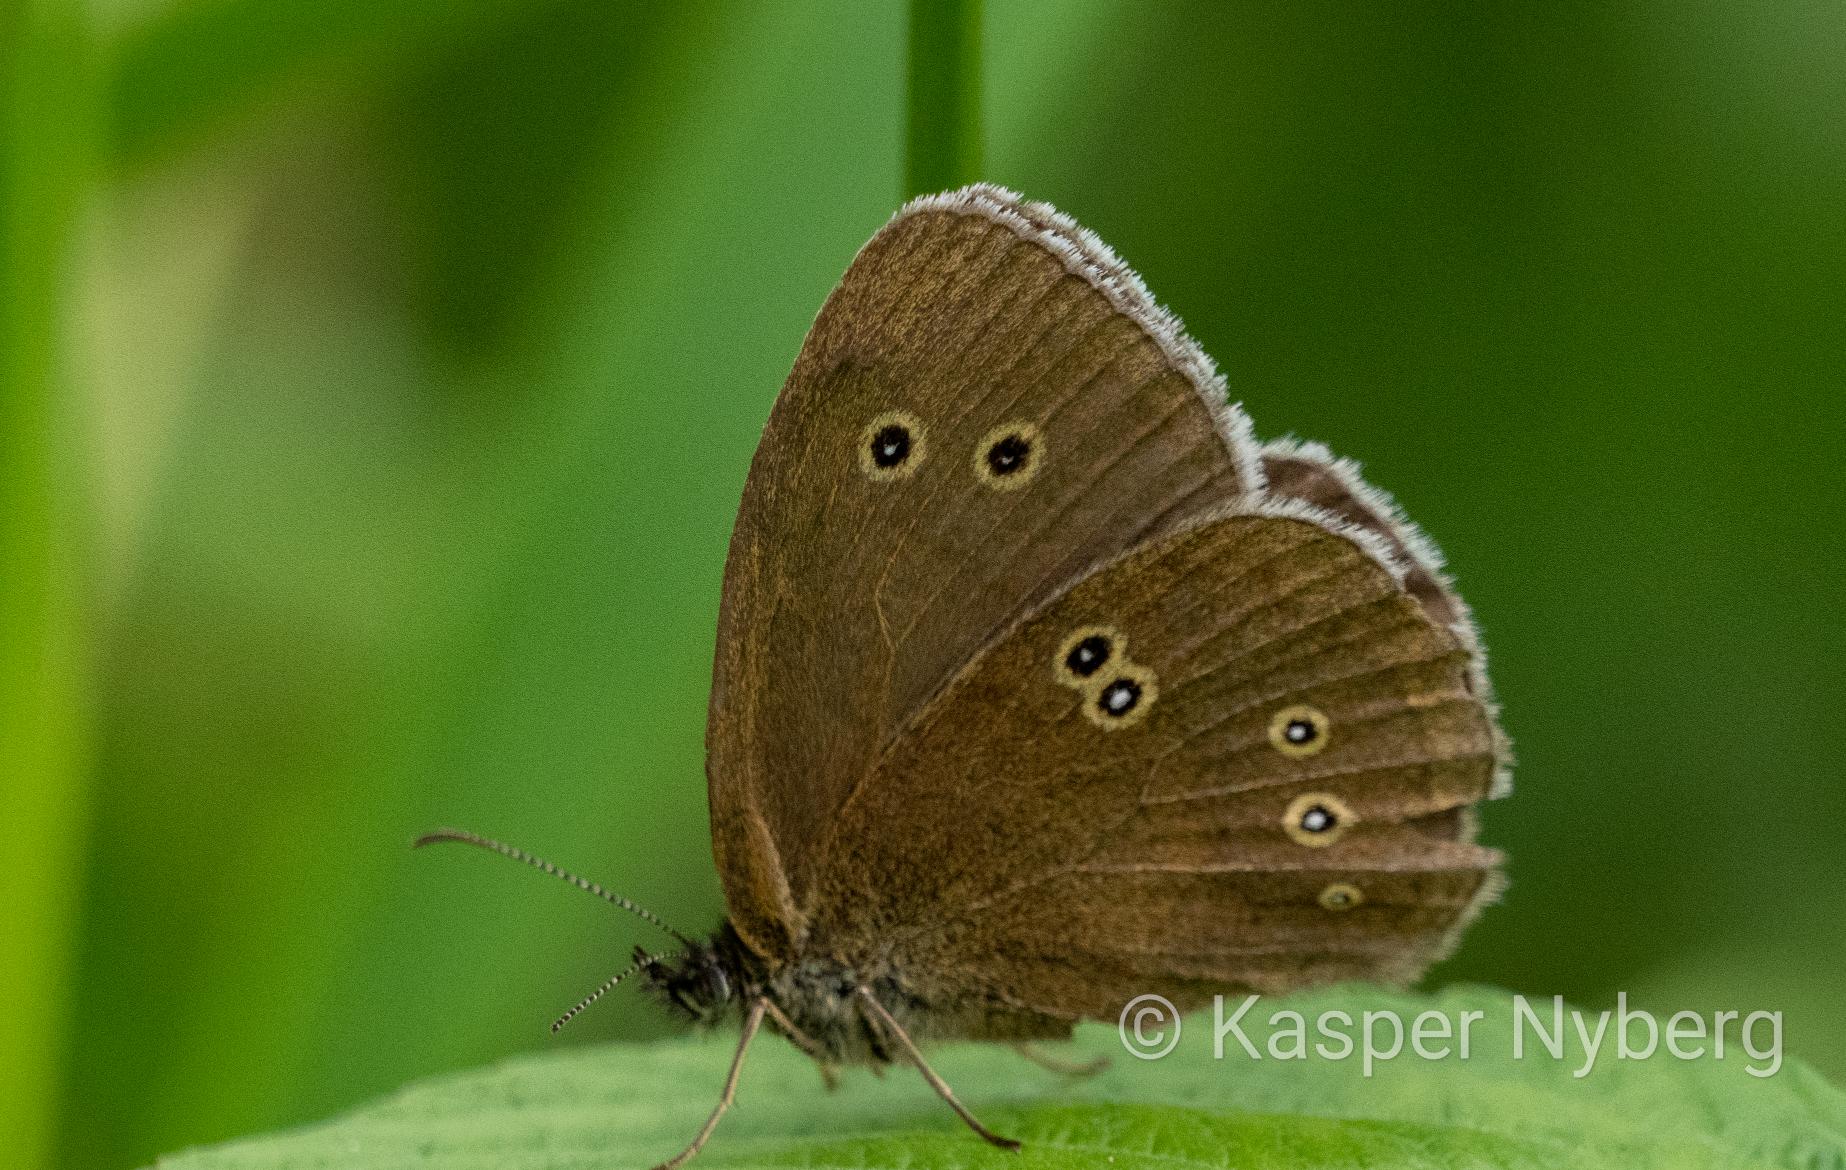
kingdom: Animalia
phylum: Arthropoda
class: Insecta
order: Lepidoptera
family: Nymphalidae
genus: Aphantopus
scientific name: Aphantopus hyperantus
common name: Engrandøje
